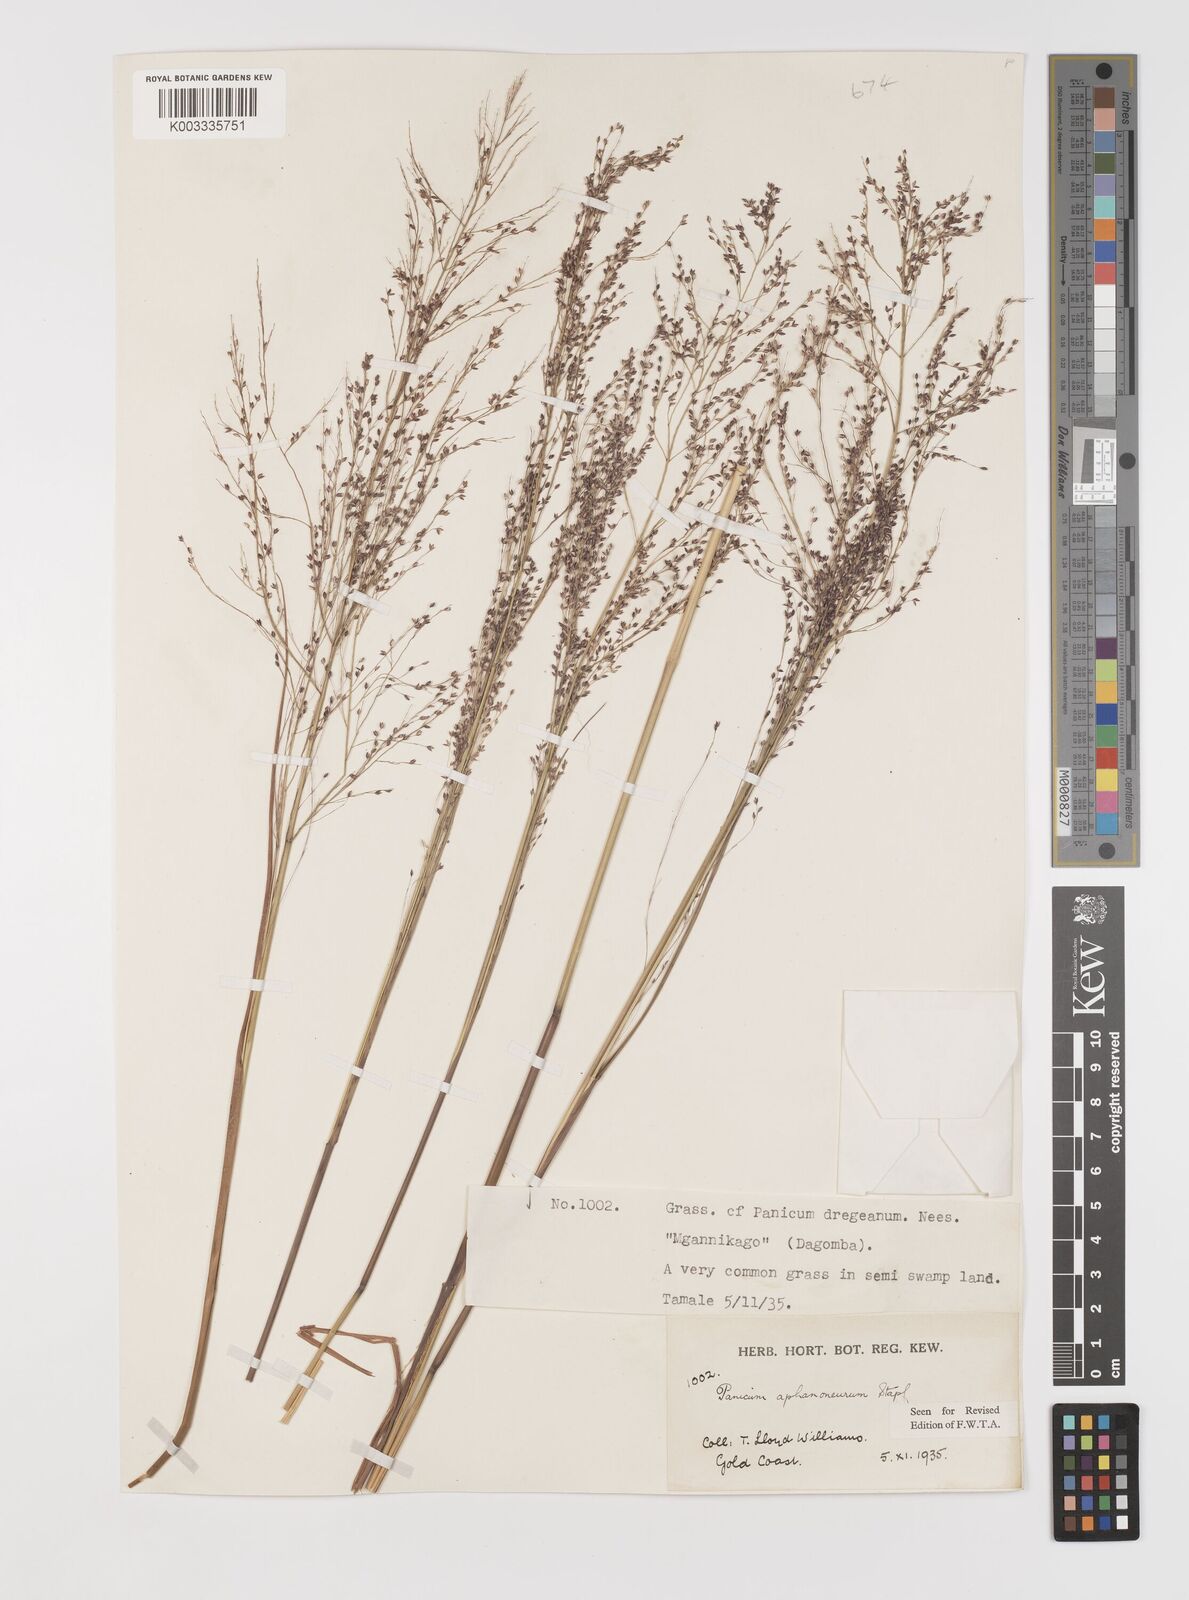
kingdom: Plantae
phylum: Tracheophyta
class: Liliopsida
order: Poales
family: Poaceae
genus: Panicum
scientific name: Panicum fluviicola
